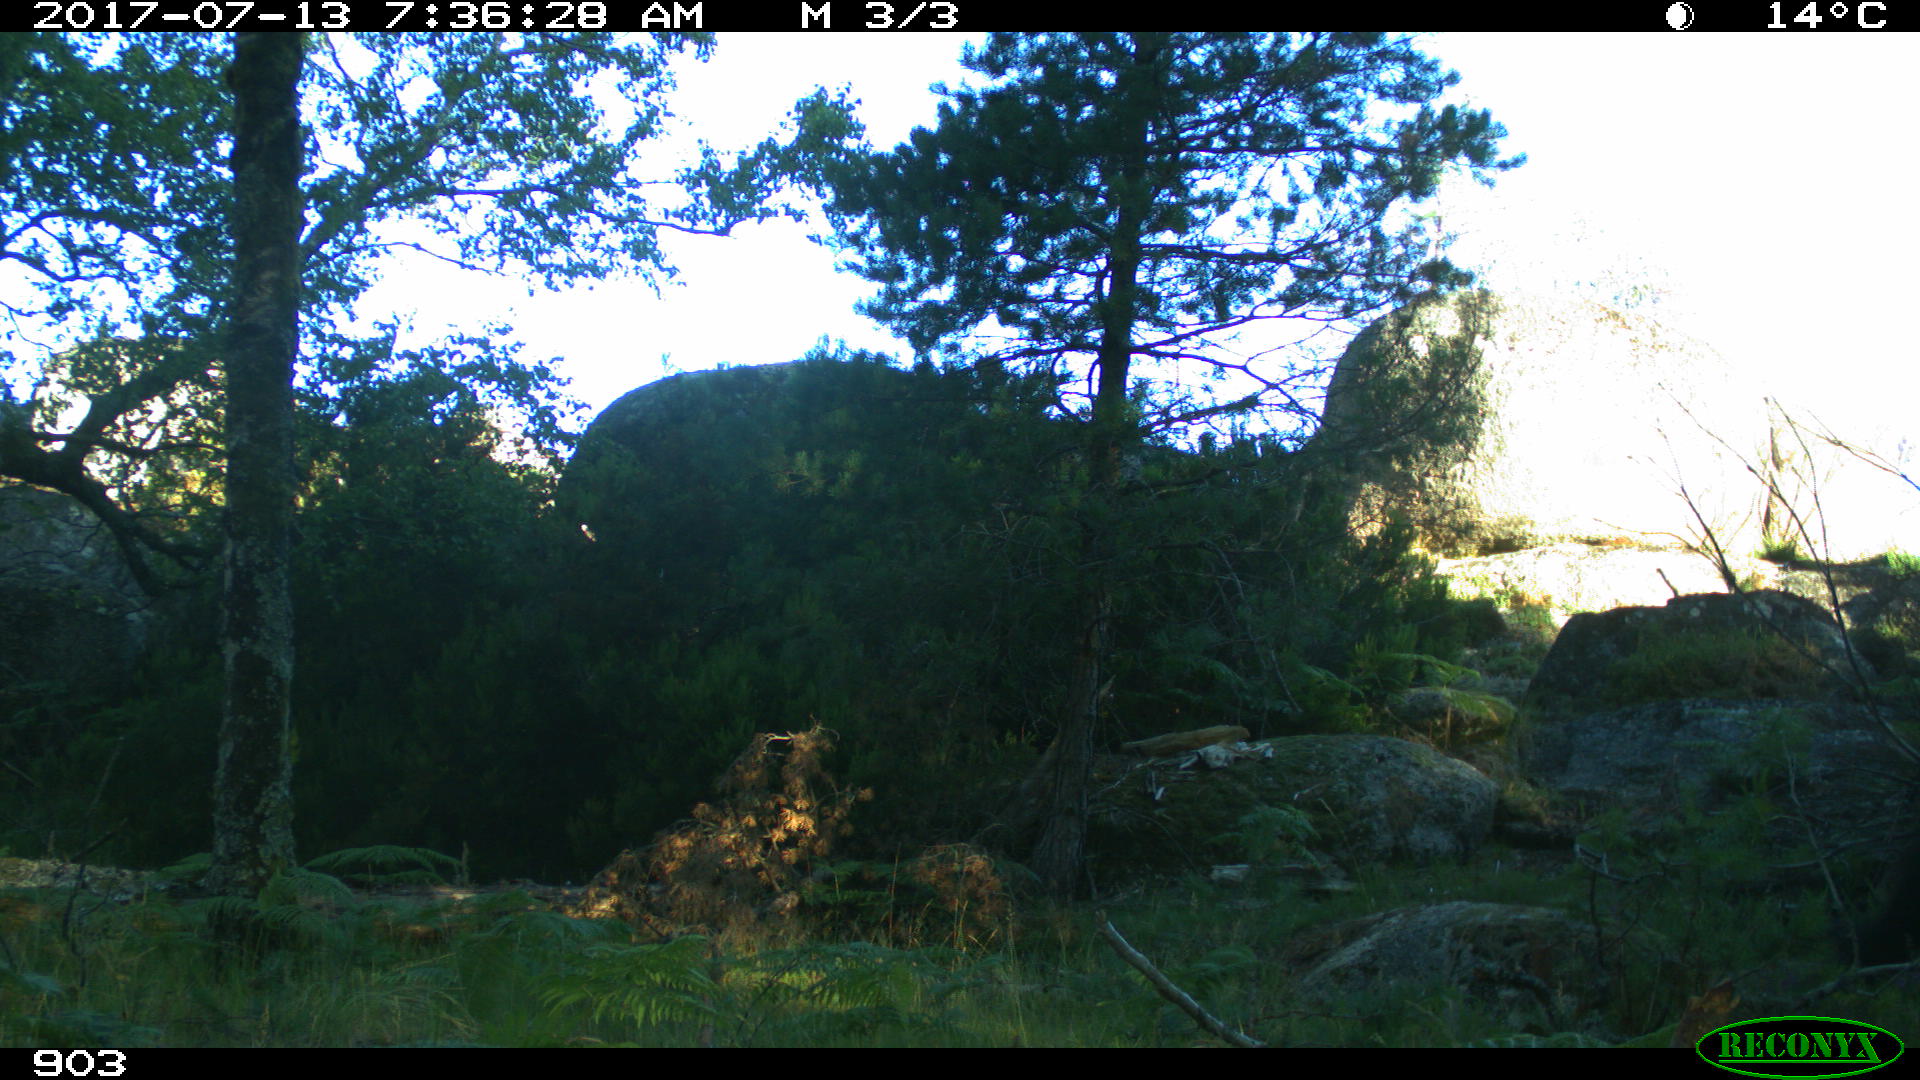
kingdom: Animalia
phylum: Chordata
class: Mammalia
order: Perissodactyla
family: Equidae
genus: Equus
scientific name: Equus caballus
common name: Horse
